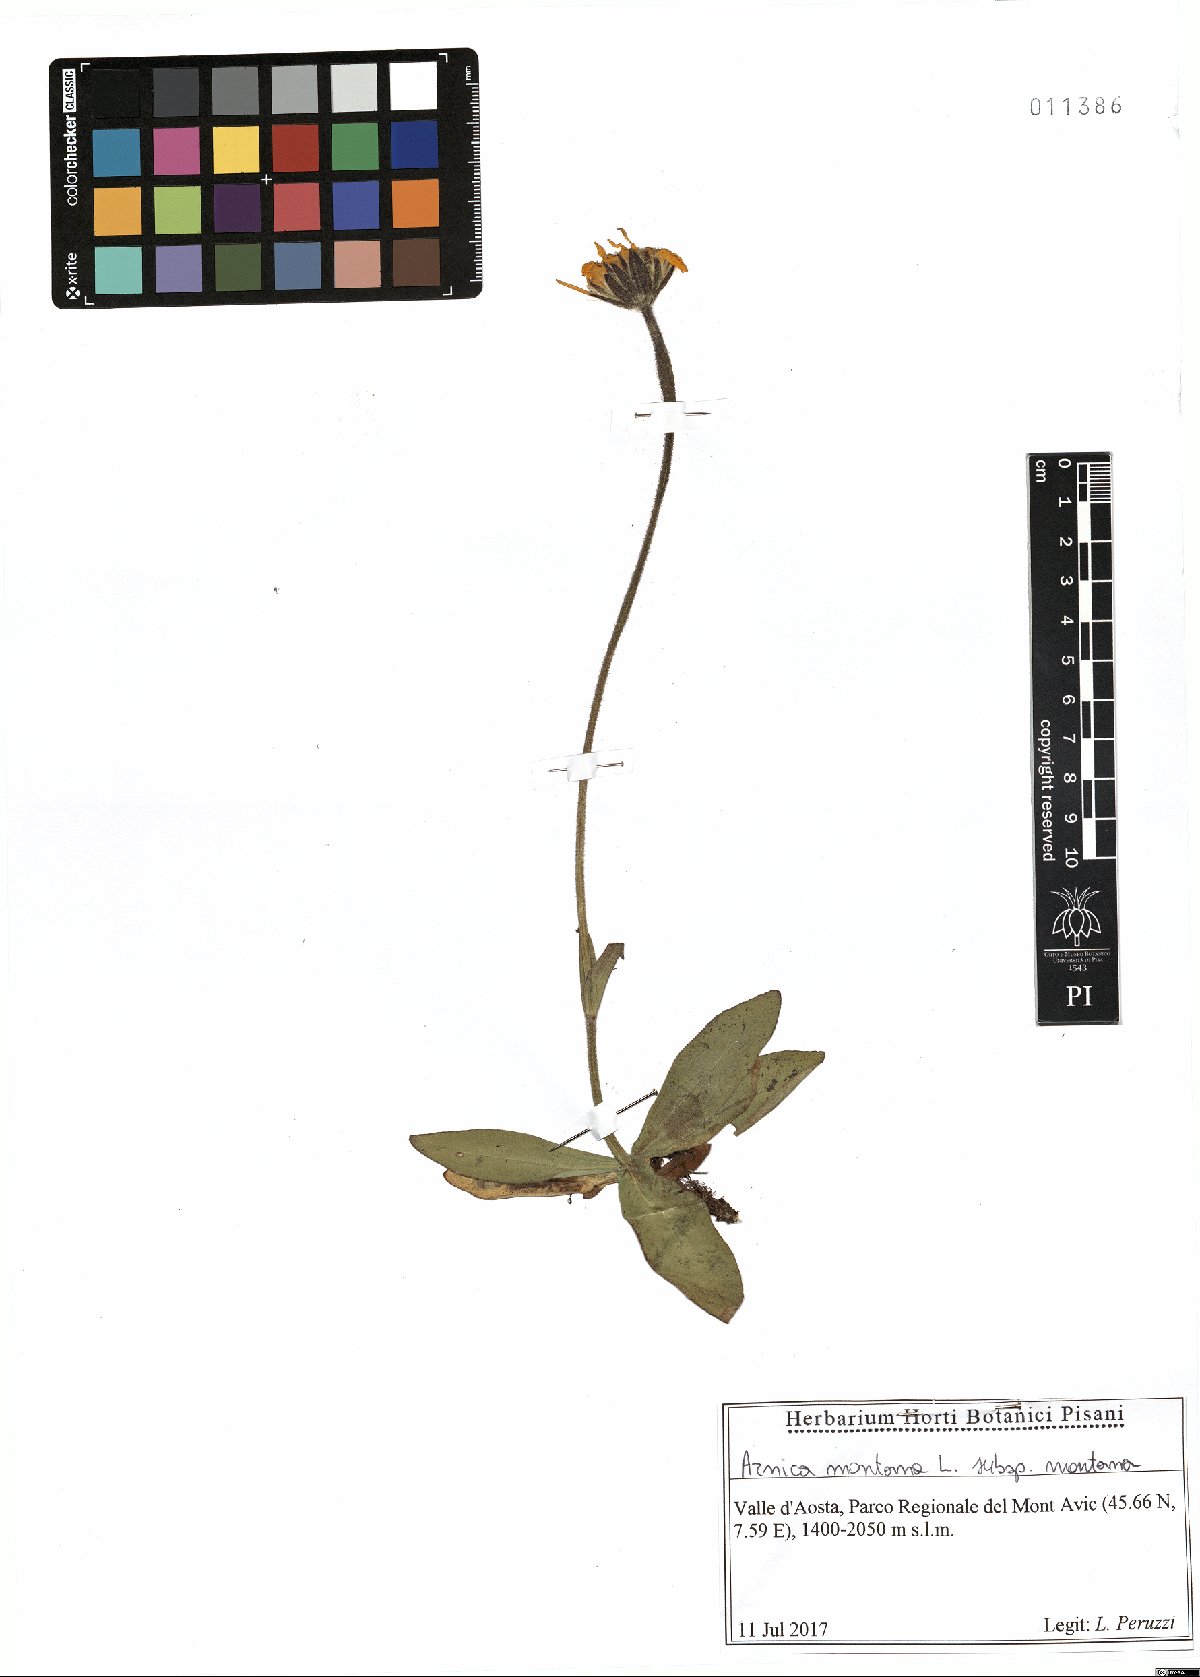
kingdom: Plantae
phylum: Tracheophyta
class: Magnoliopsida
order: Asterales
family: Asteraceae
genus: Arnica
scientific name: Arnica montana
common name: Leopard's bane
